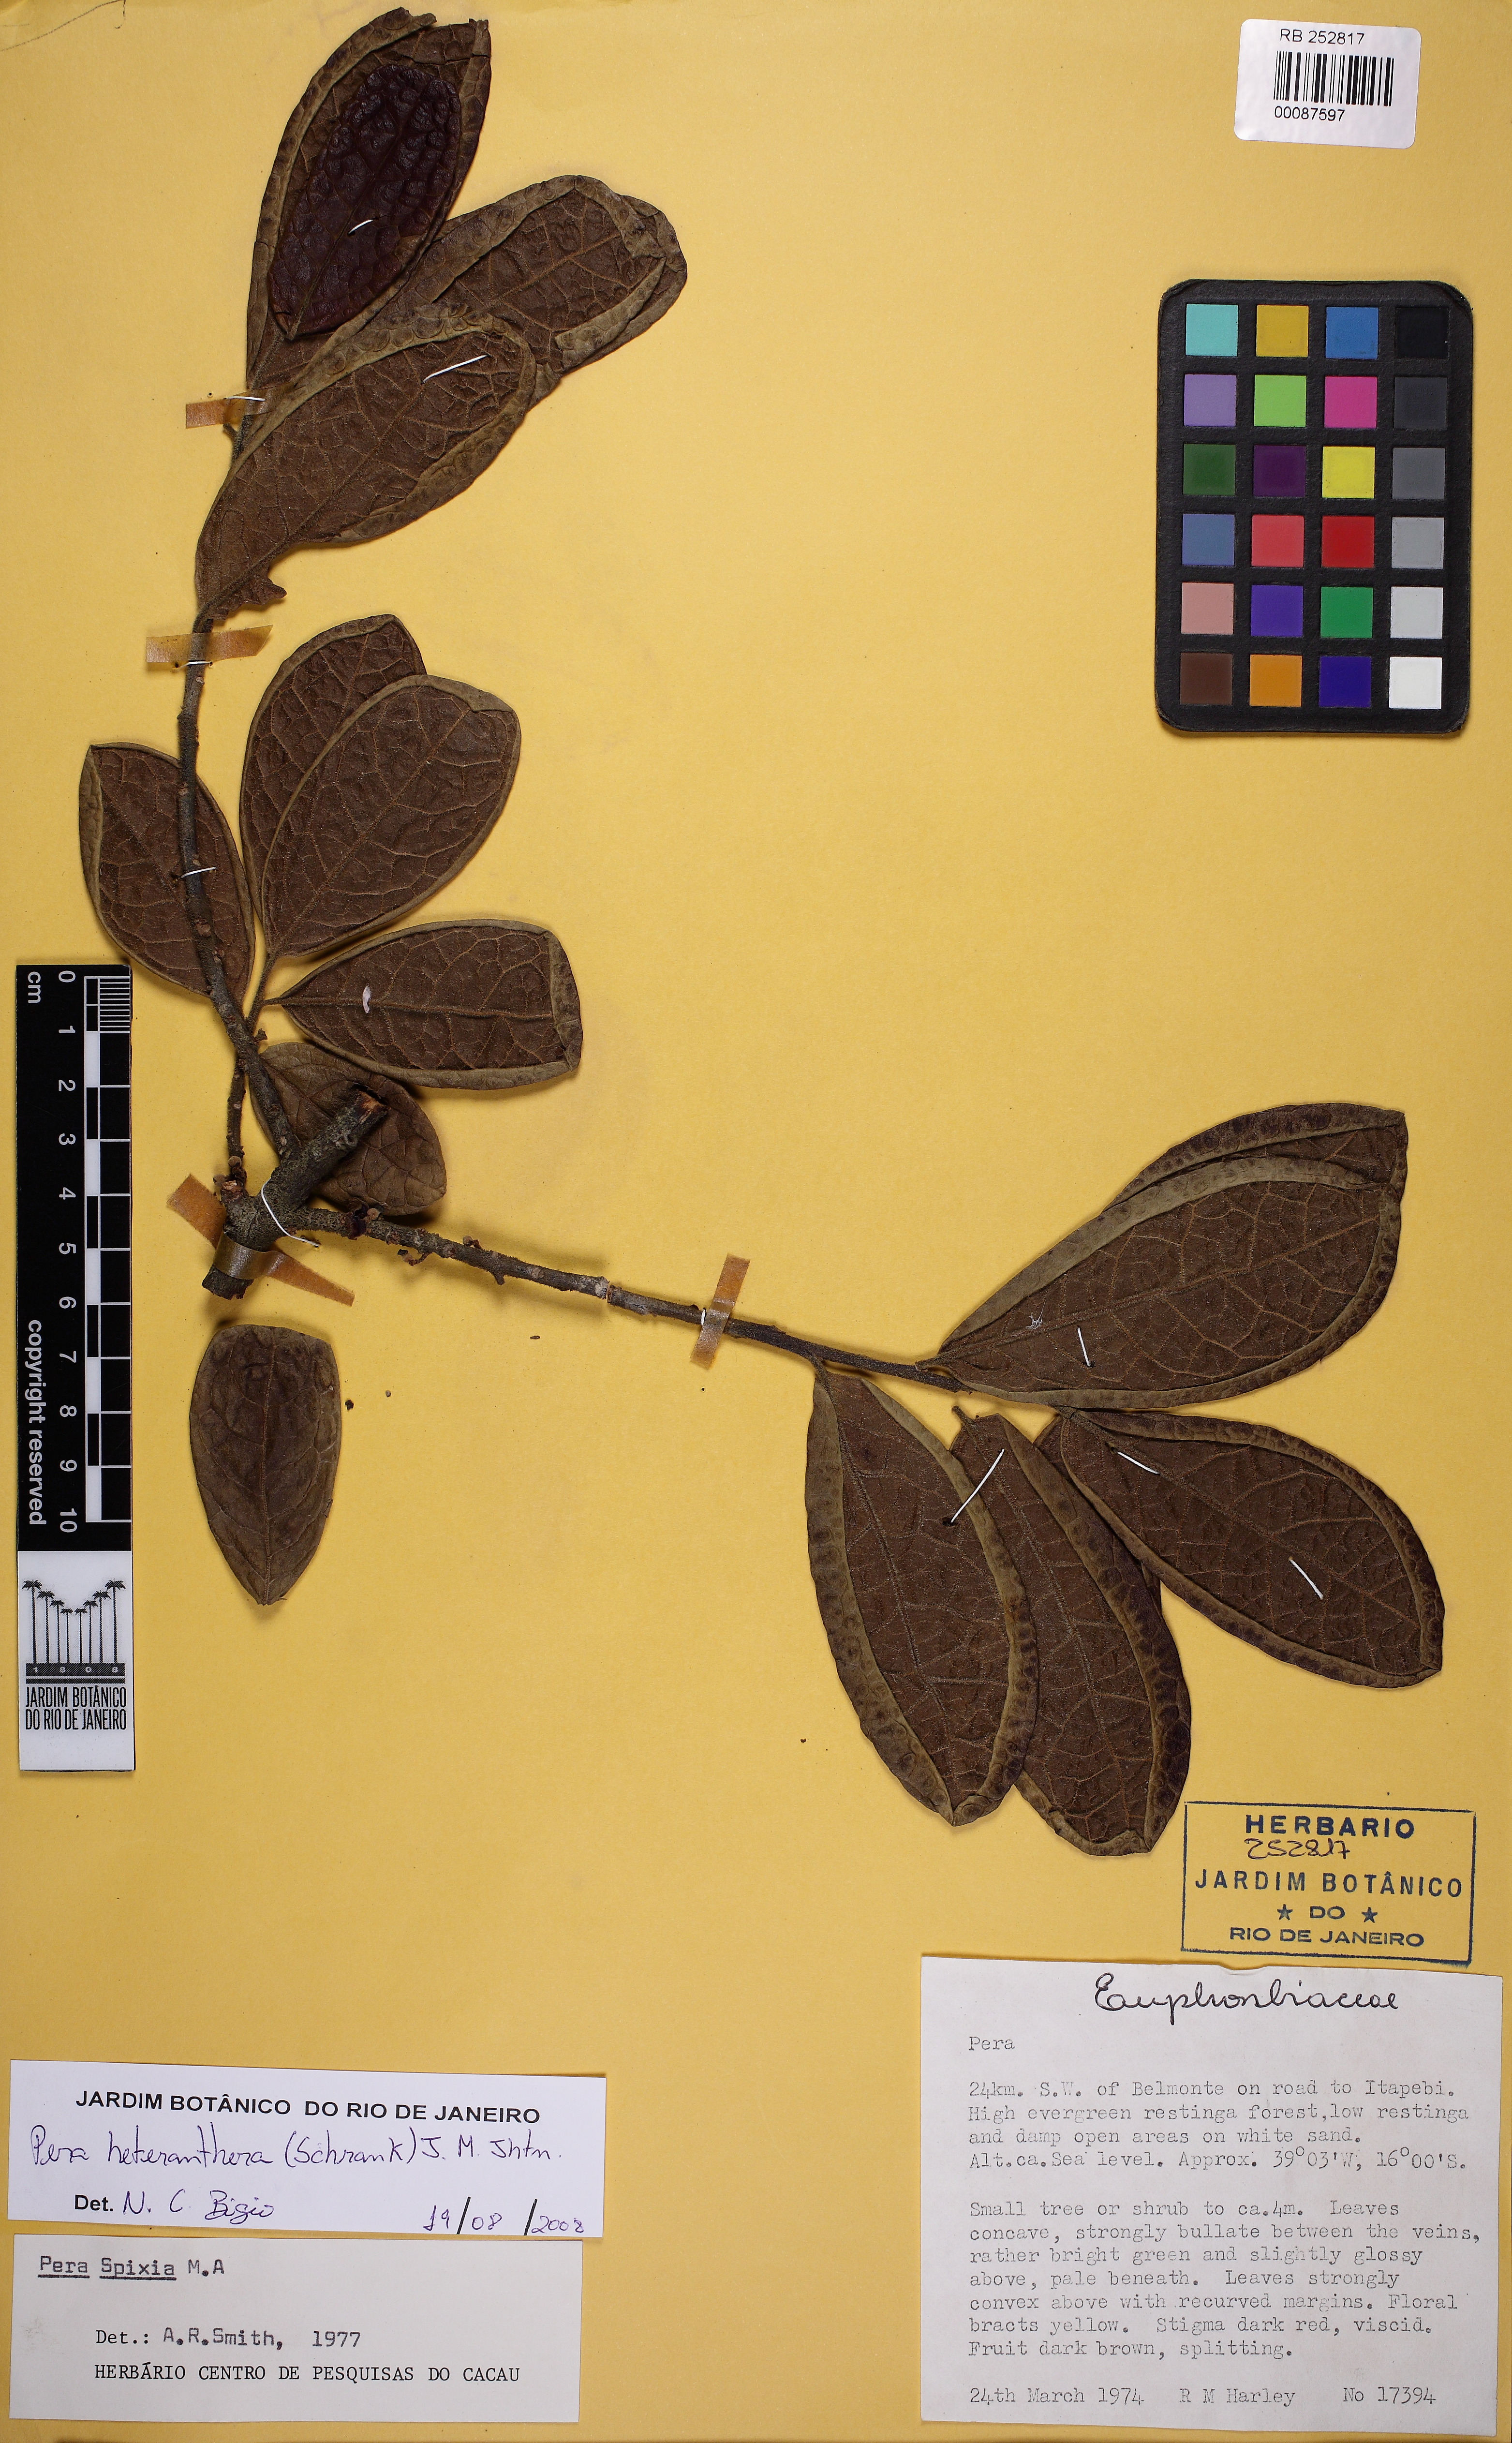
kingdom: Plantae
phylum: Tracheophyta
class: Magnoliopsida
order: Malpighiales
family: Peraceae
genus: Pera
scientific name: Pera heteranthera
